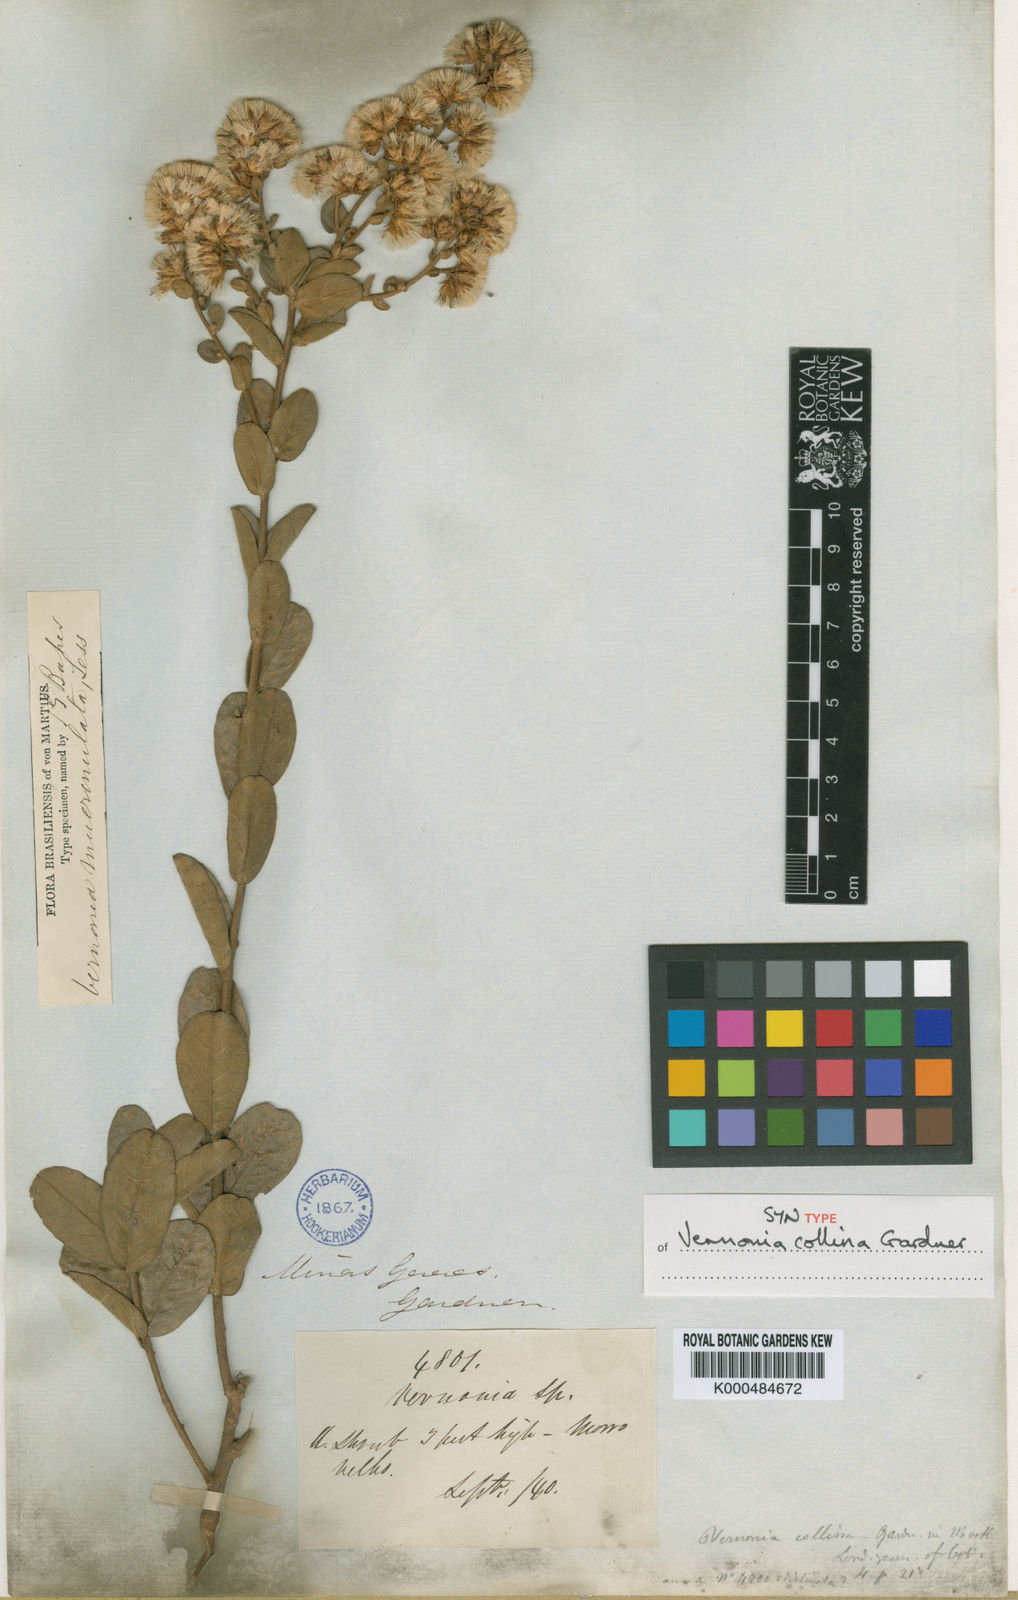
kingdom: Plantae
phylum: Tracheophyta
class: Magnoliopsida
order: Asterales
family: Asteraceae
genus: Vernonanthura
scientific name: Vernonanthura mucronulata
